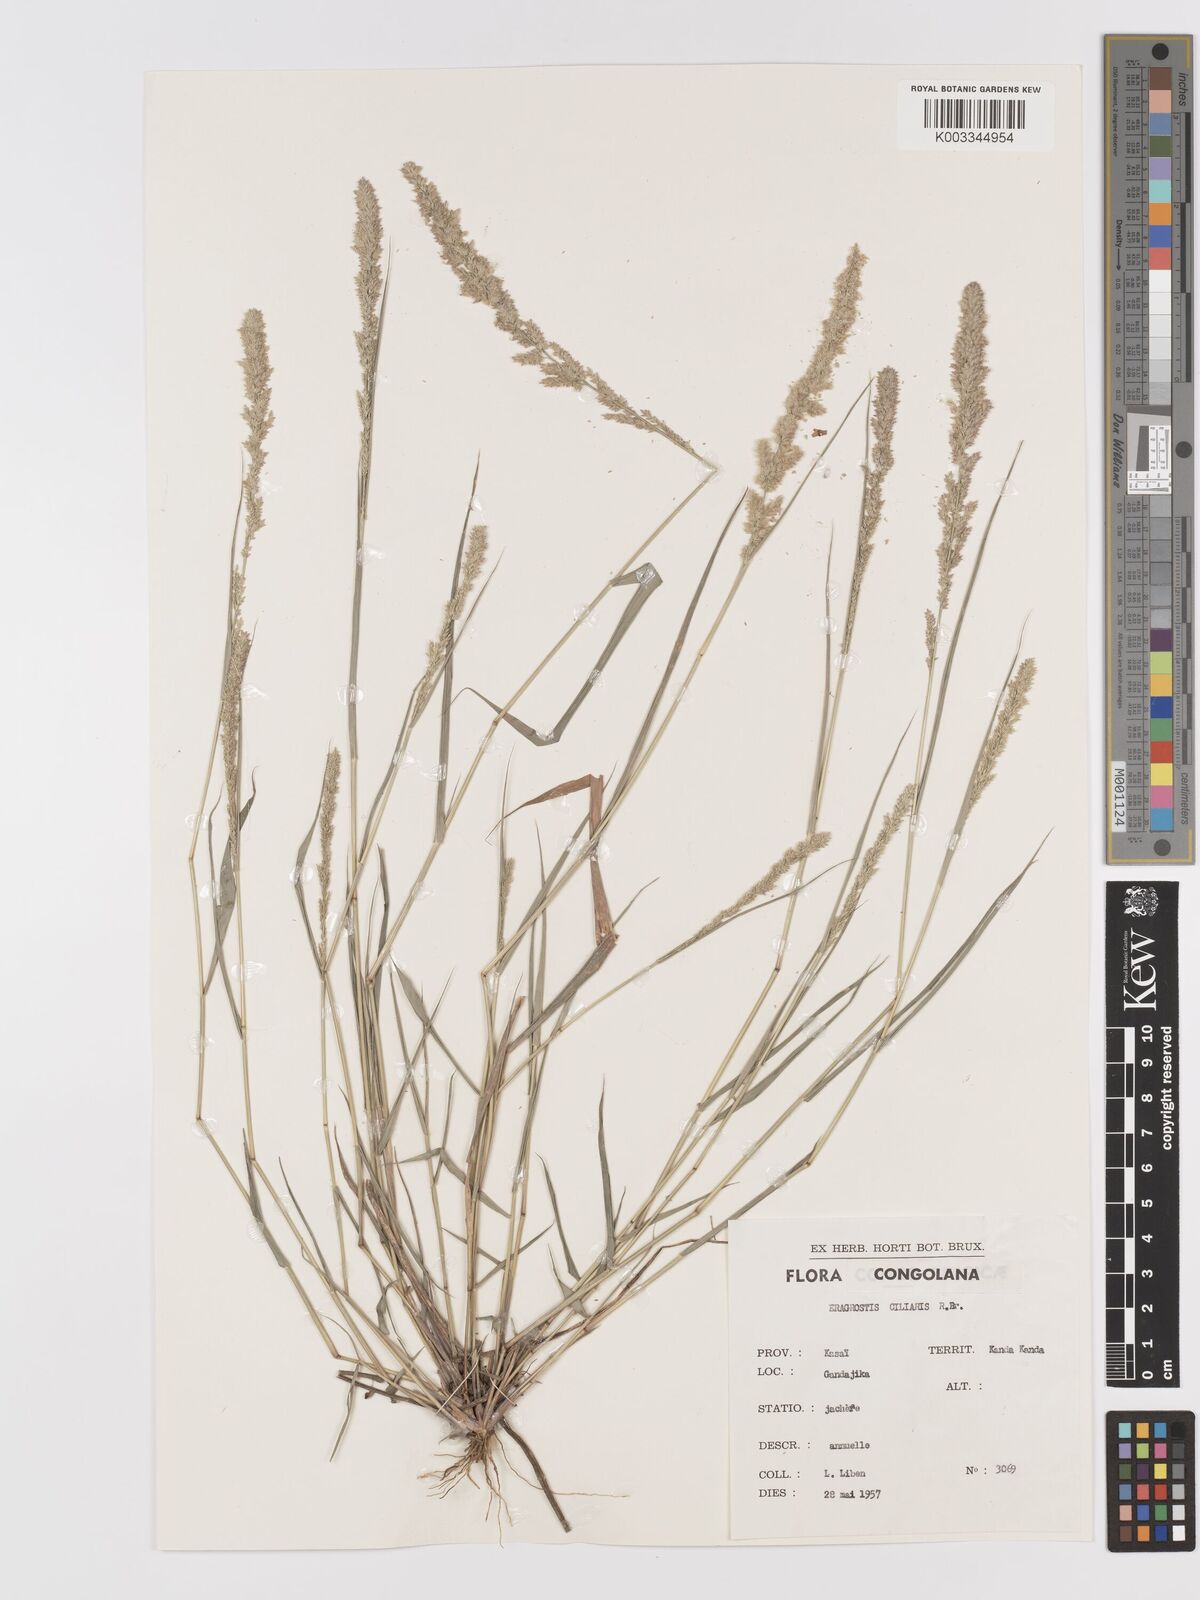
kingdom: Plantae
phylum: Tracheophyta
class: Liliopsida
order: Poales
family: Poaceae
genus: Eragrostis
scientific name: Eragrostis ciliaris
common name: Gophertail lovegrass
